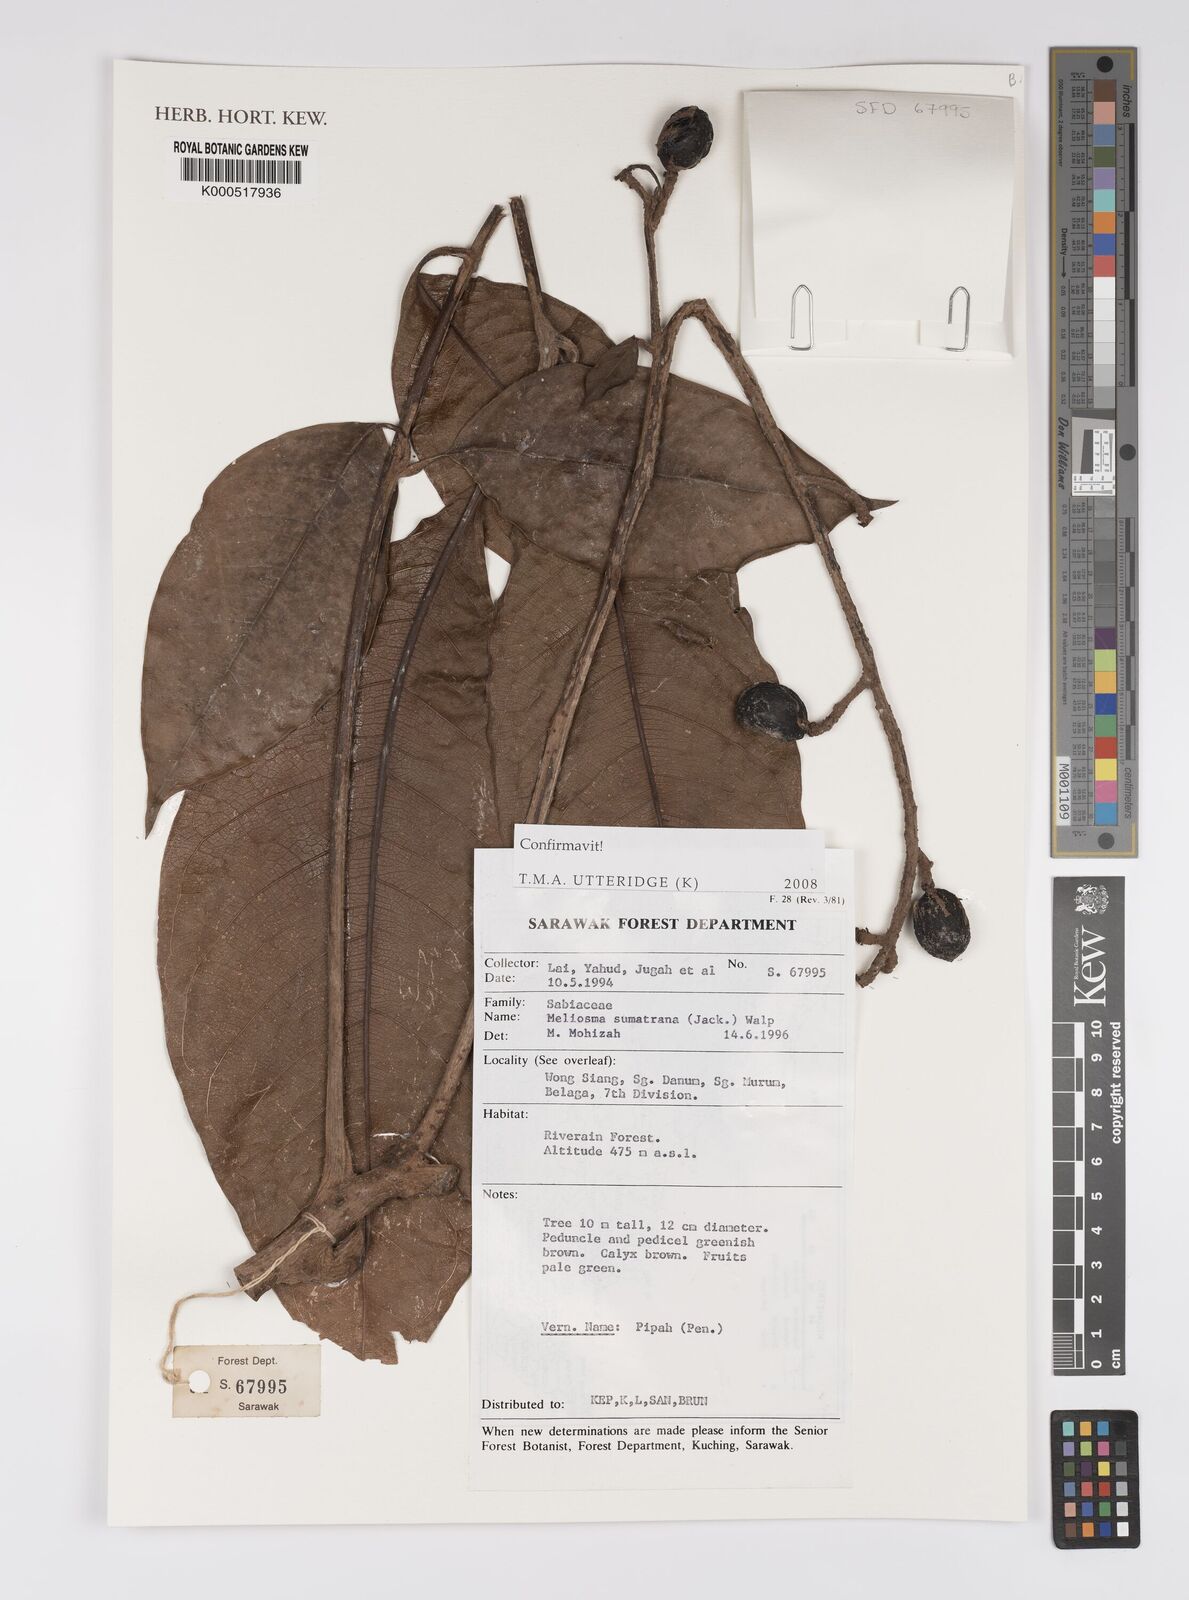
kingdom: Plantae
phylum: Tracheophyta
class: Magnoliopsida
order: Proteales
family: Sabiaceae
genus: Meliosma
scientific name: Meliosma sumatrana
